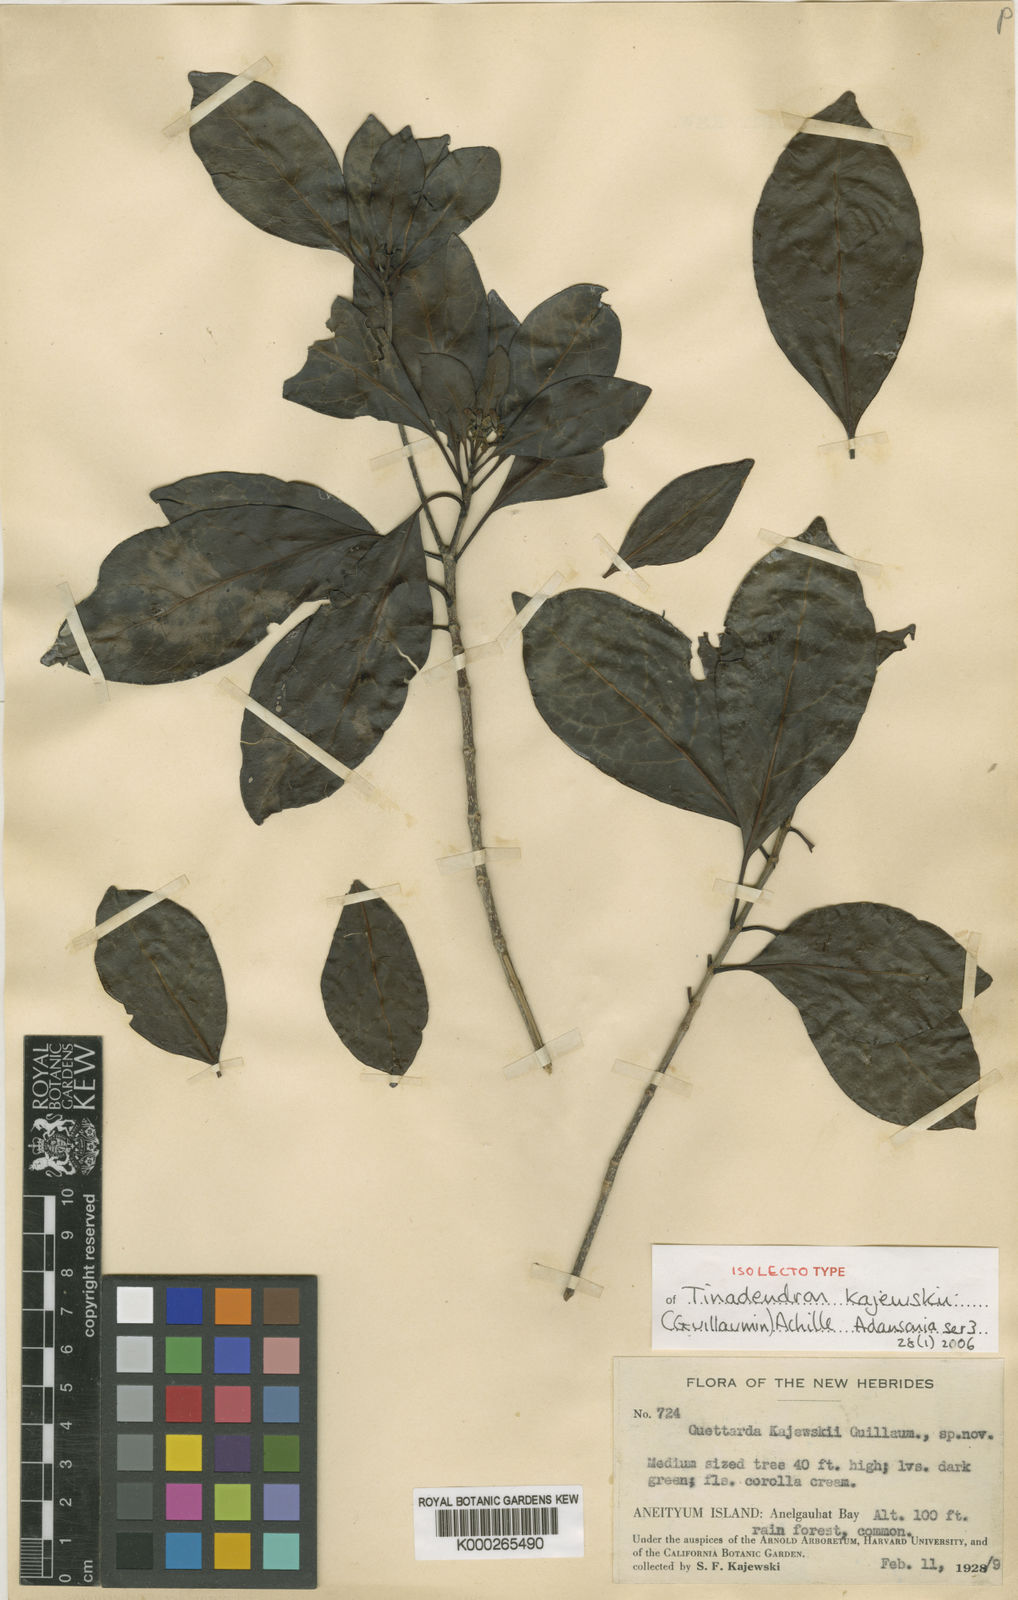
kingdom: Plantae
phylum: Tracheophyta
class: Magnoliopsida
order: Gentianales
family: Rubiaceae
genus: Tinadendron
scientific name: Tinadendron kajewskii
